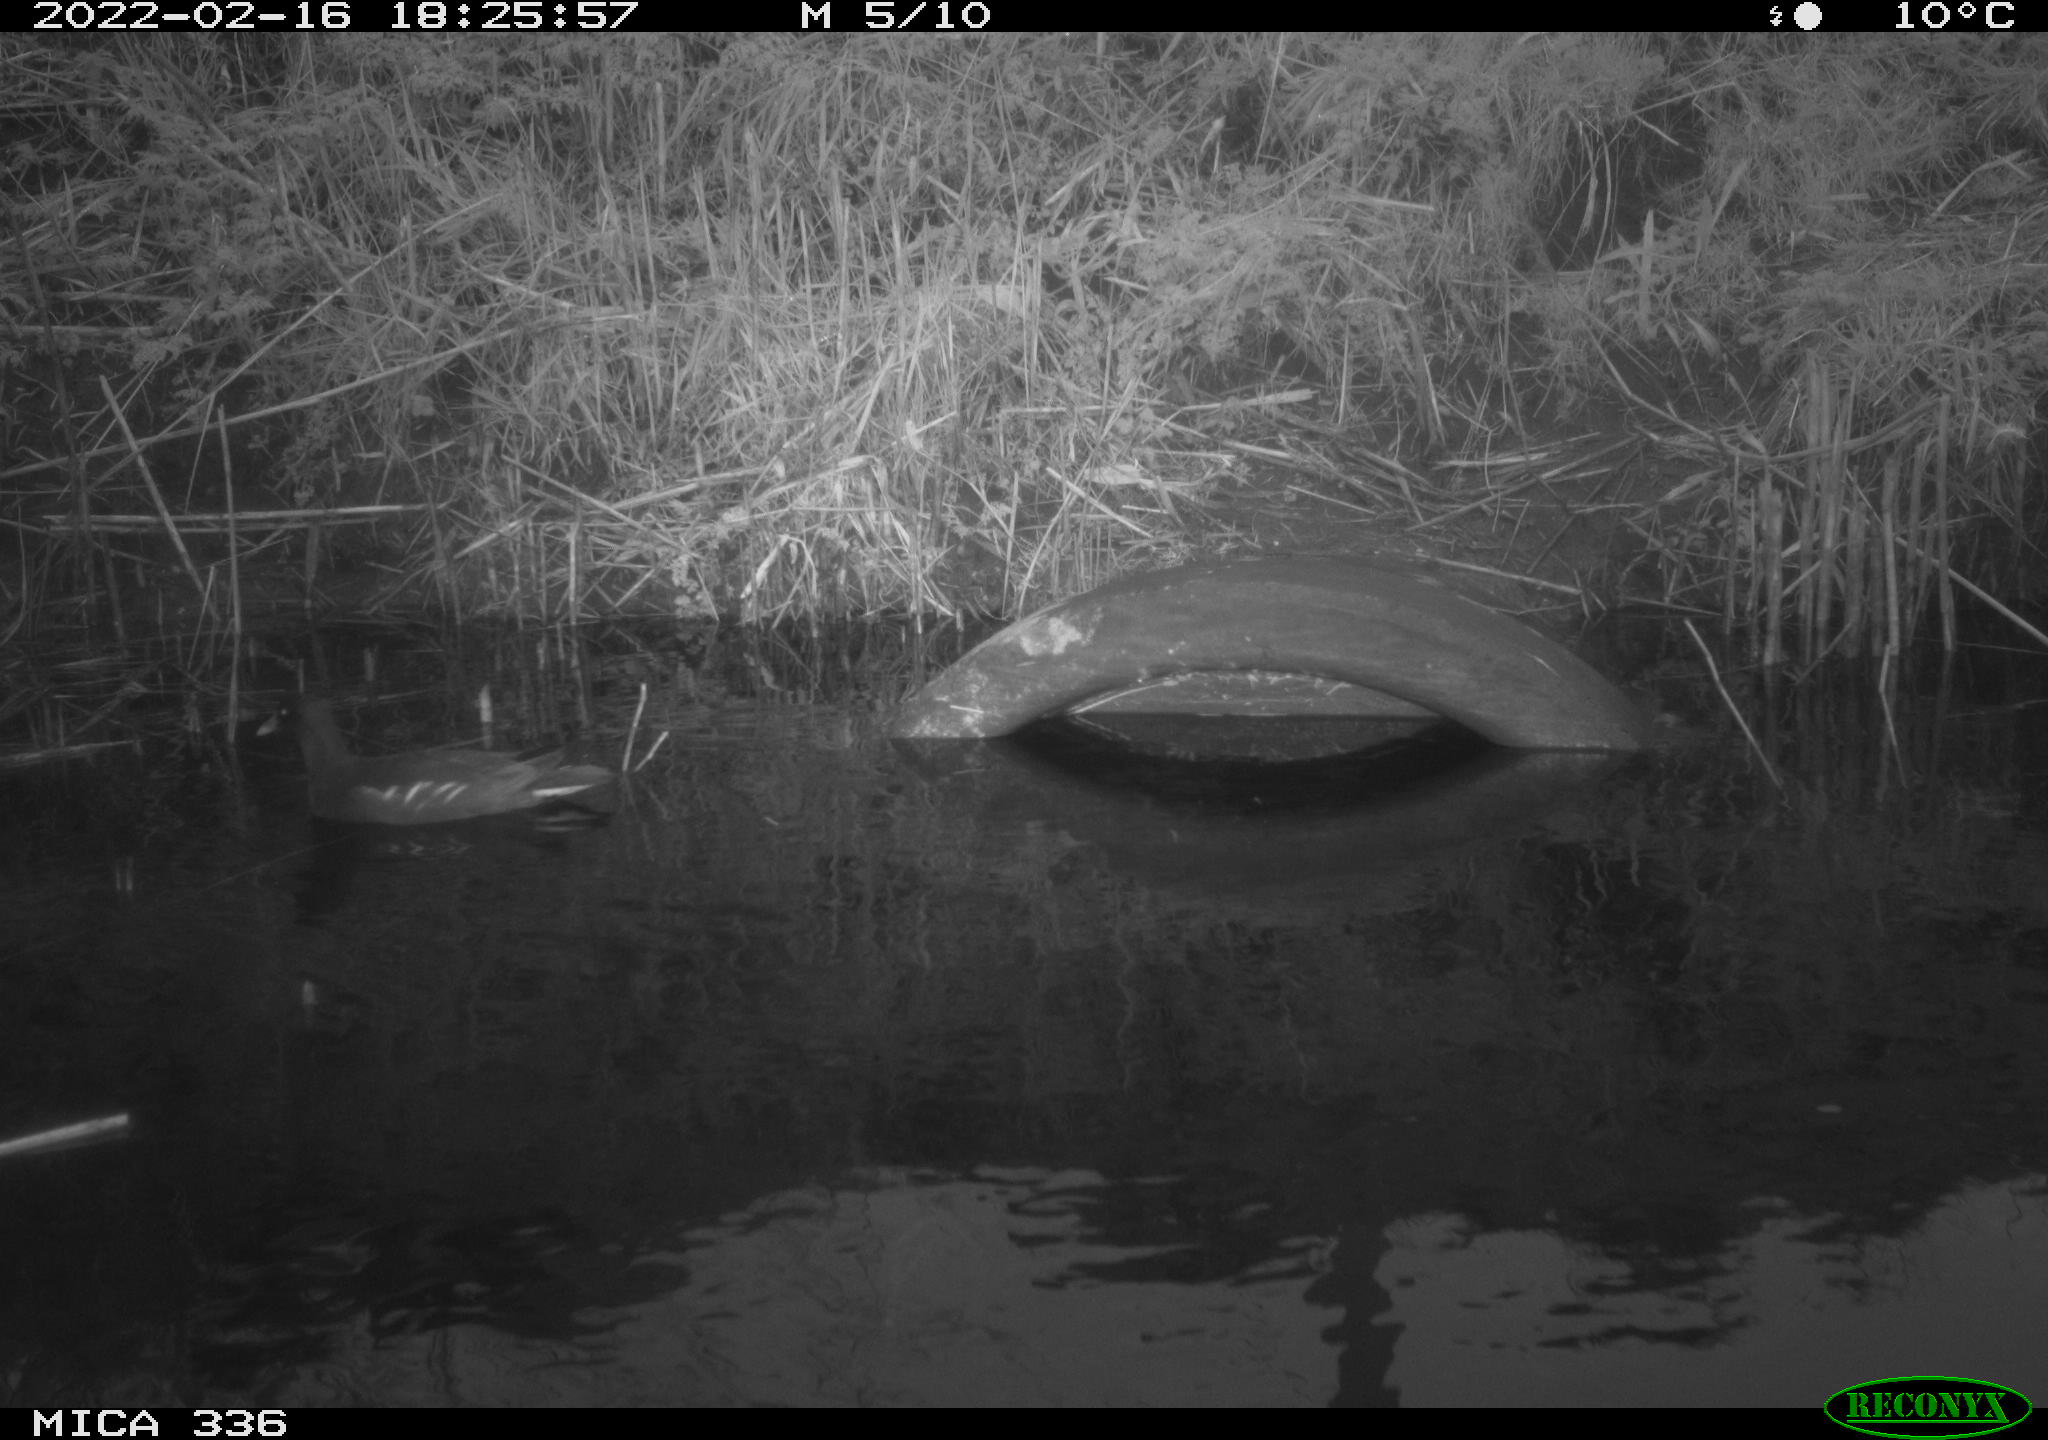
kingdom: Animalia
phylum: Chordata
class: Aves
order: Gruiformes
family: Rallidae
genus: Gallinula
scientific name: Gallinula chloropus
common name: Common moorhen
